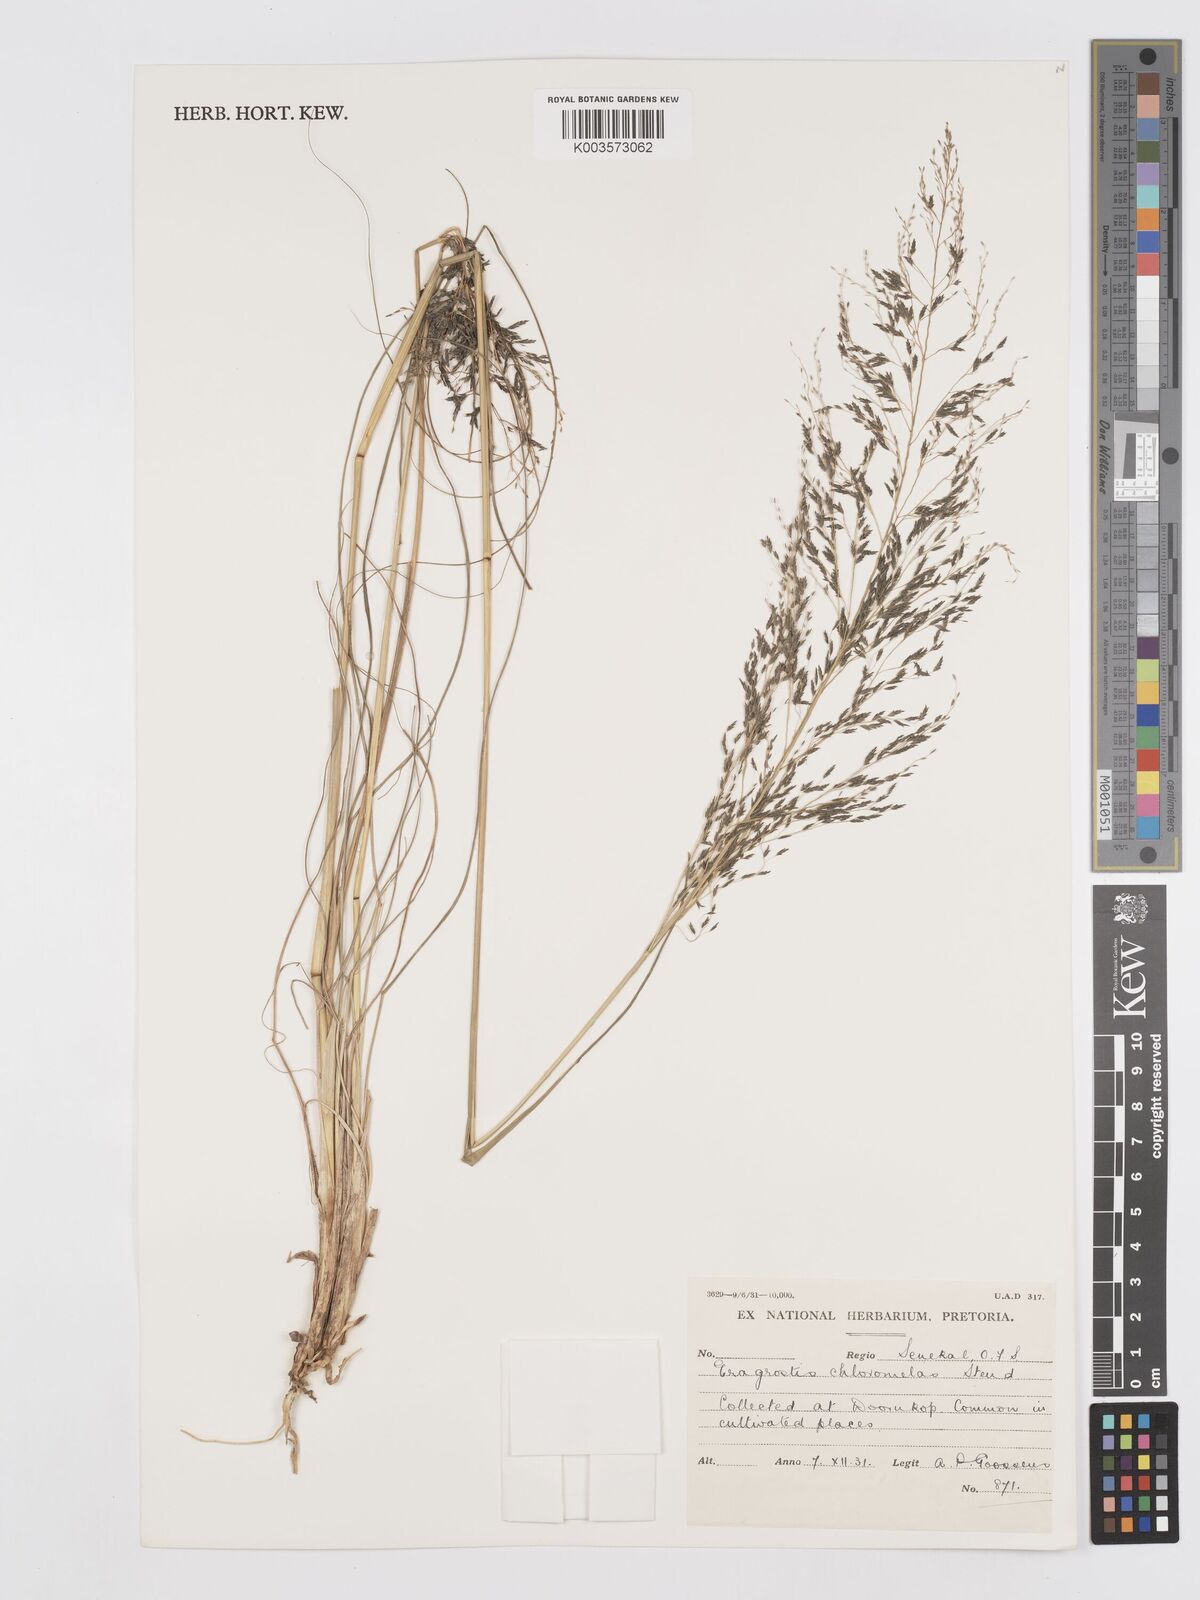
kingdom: Plantae
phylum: Tracheophyta
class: Liliopsida
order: Poales
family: Poaceae
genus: Eragrostis
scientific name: Eragrostis curvula
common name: African love-grass
